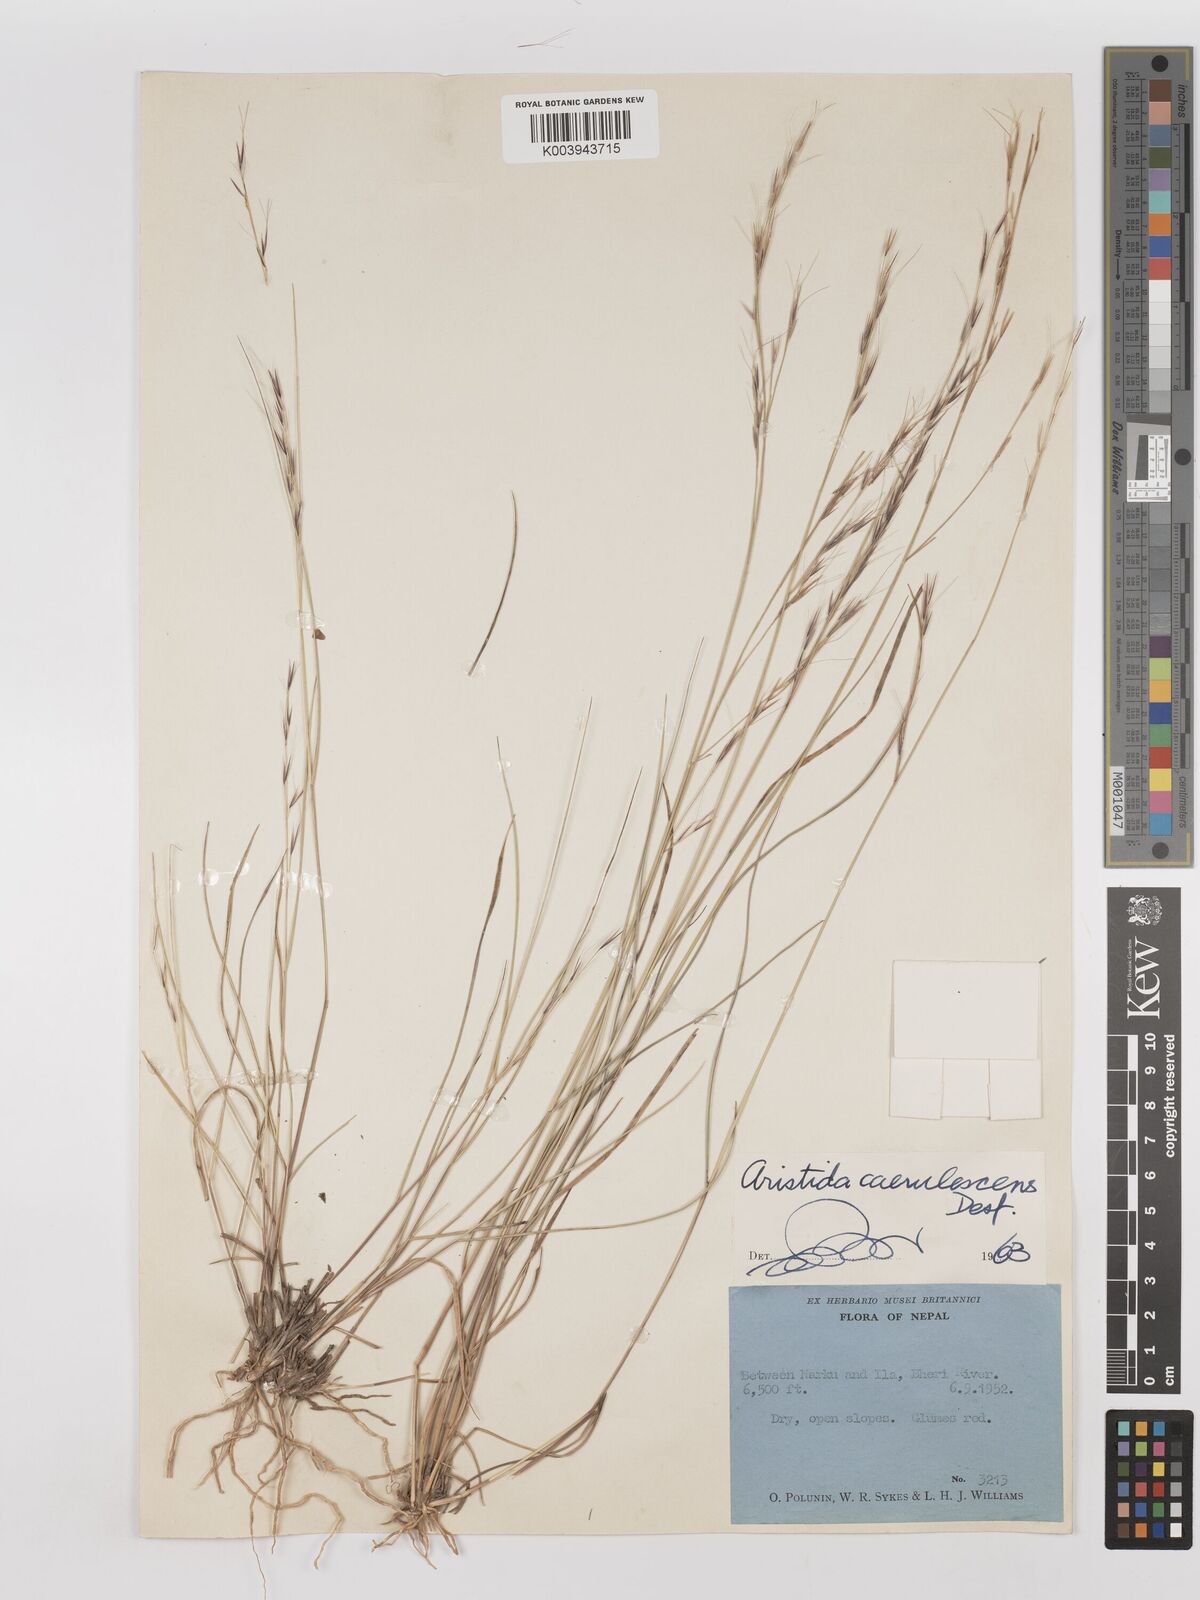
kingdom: Plantae
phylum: Tracheophyta
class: Liliopsida
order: Poales
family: Poaceae
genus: Aristida
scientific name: Aristida adscensionis
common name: Sixweeks threeawn
